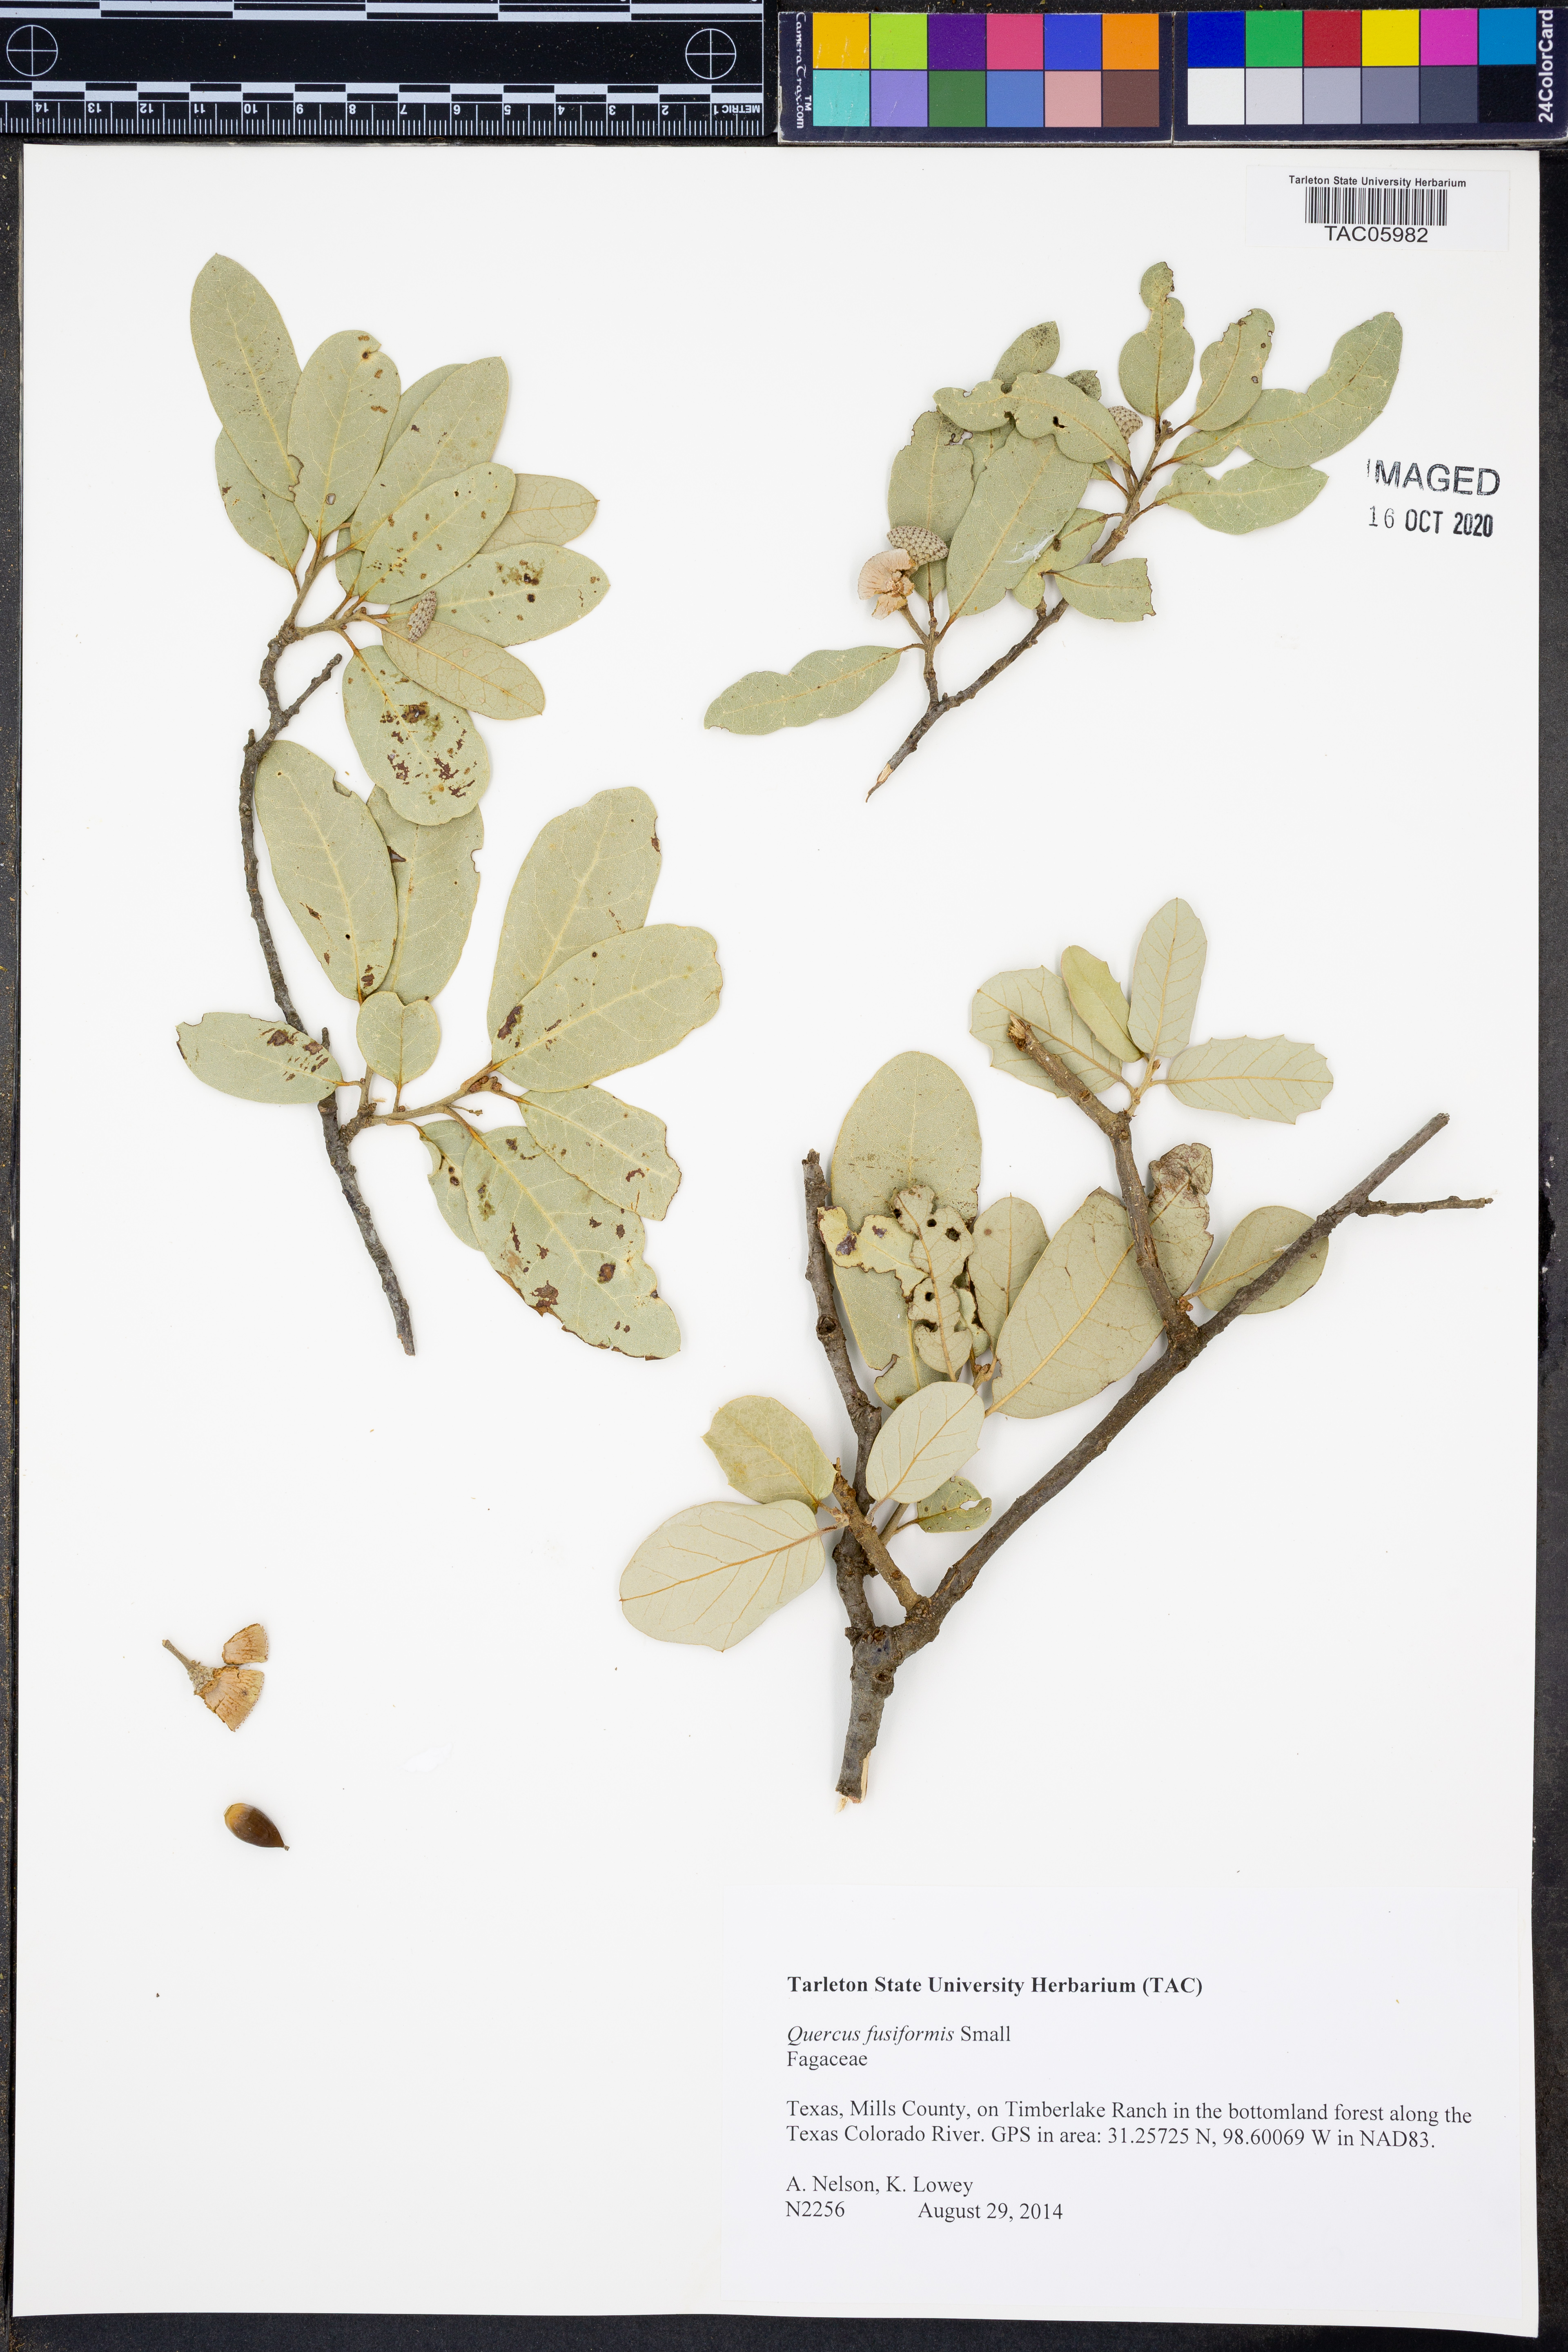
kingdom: Plantae
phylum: Tracheophyta
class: Magnoliopsida
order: Fagales
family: Fagaceae
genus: Quercus
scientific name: Quercus fusiformis
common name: Texas live oak
